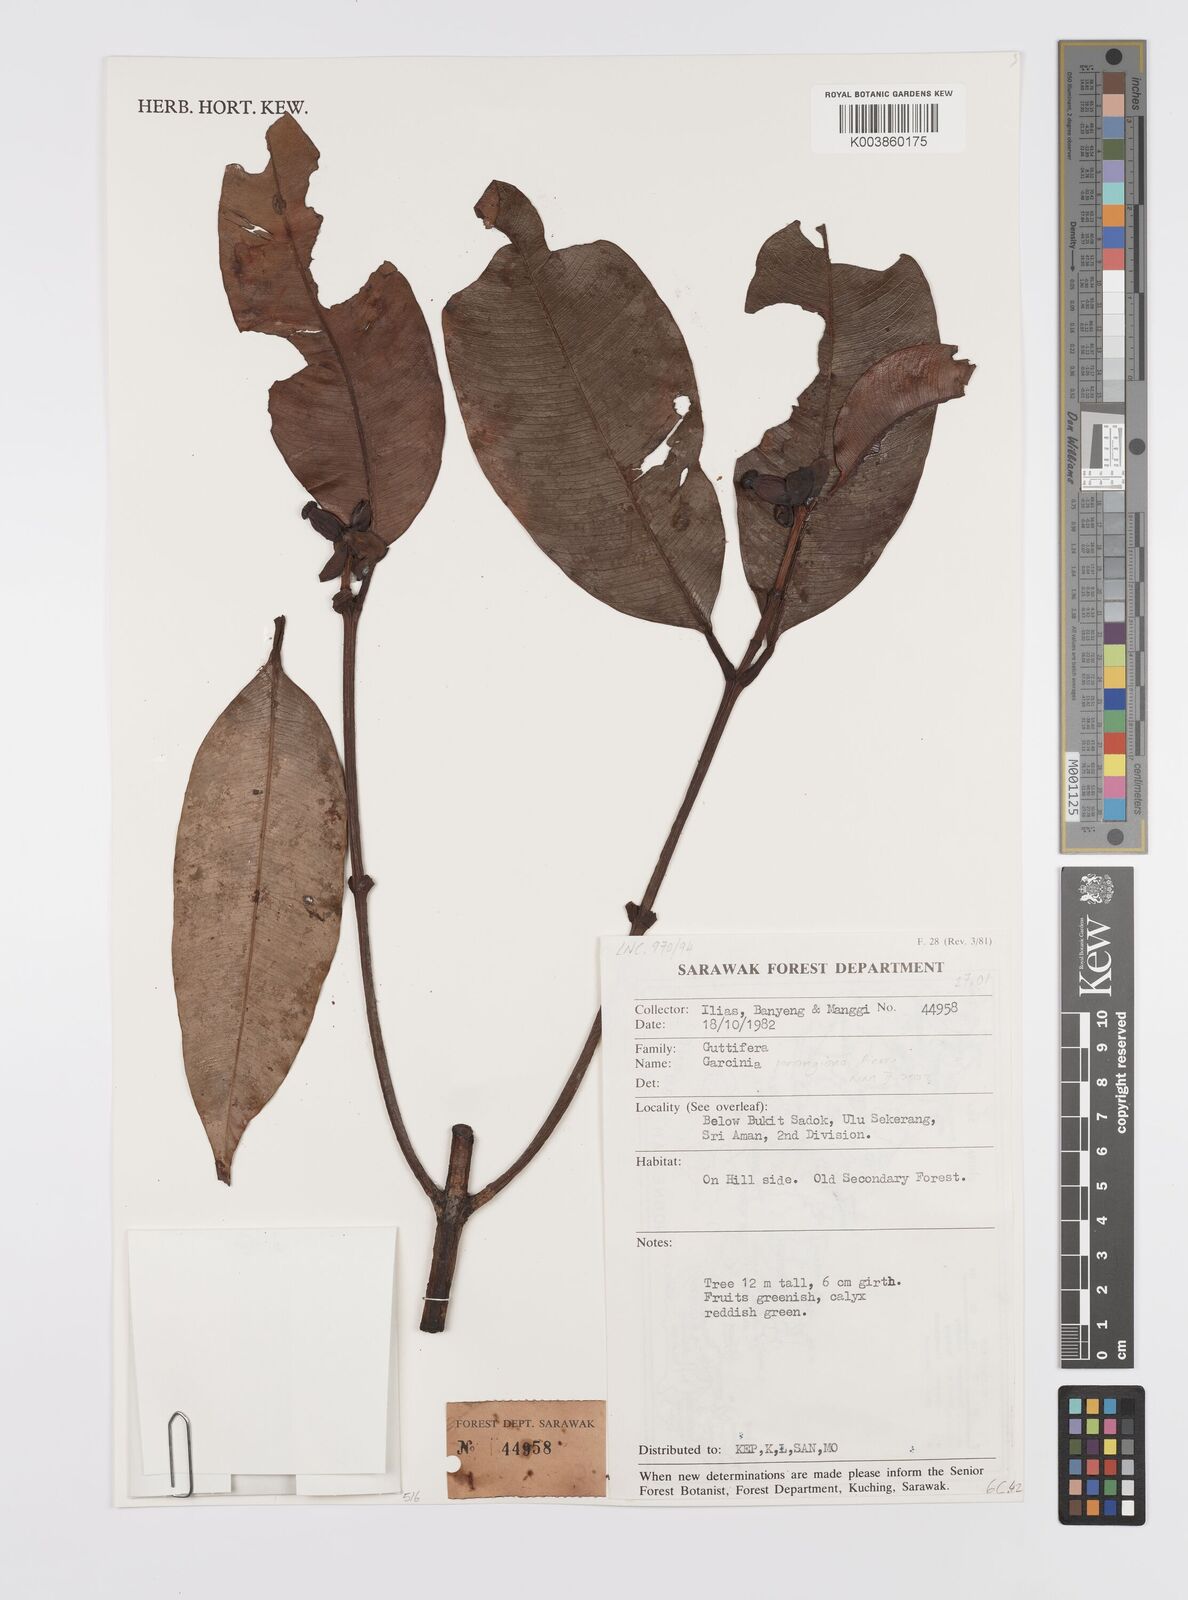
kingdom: Plantae
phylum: Tracheophyta
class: Magnoliopsida
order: Malpighiales
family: Clusiaceae
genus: Garcinia
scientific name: Garcinia penangiana
